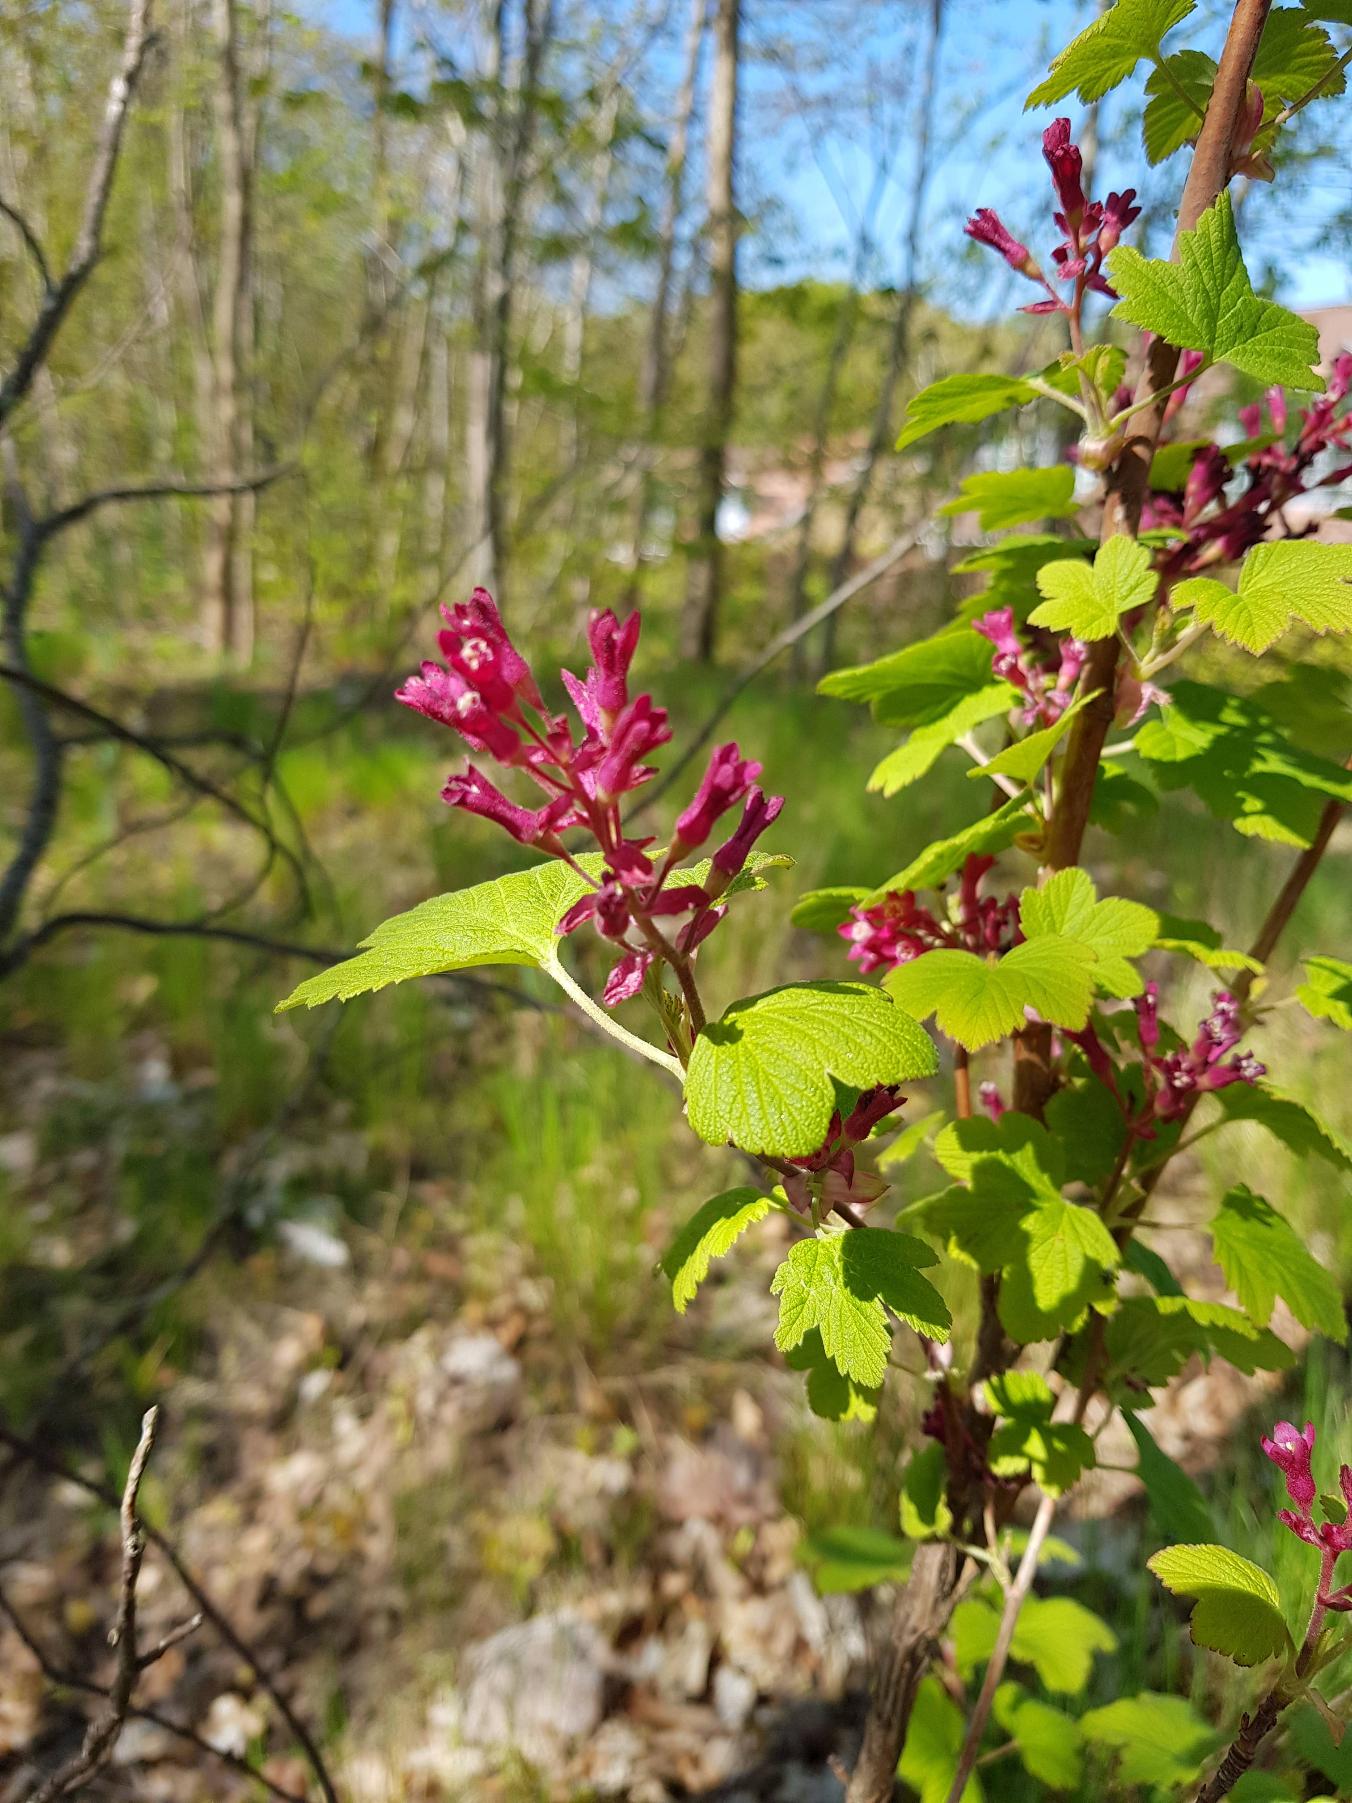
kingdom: Plantae
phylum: Tracheophyta
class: Magnoliopsida
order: Saxifragales
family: Grossulariaceae
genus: Ribes
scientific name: Ribes sanguineum
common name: Blod-ribs
